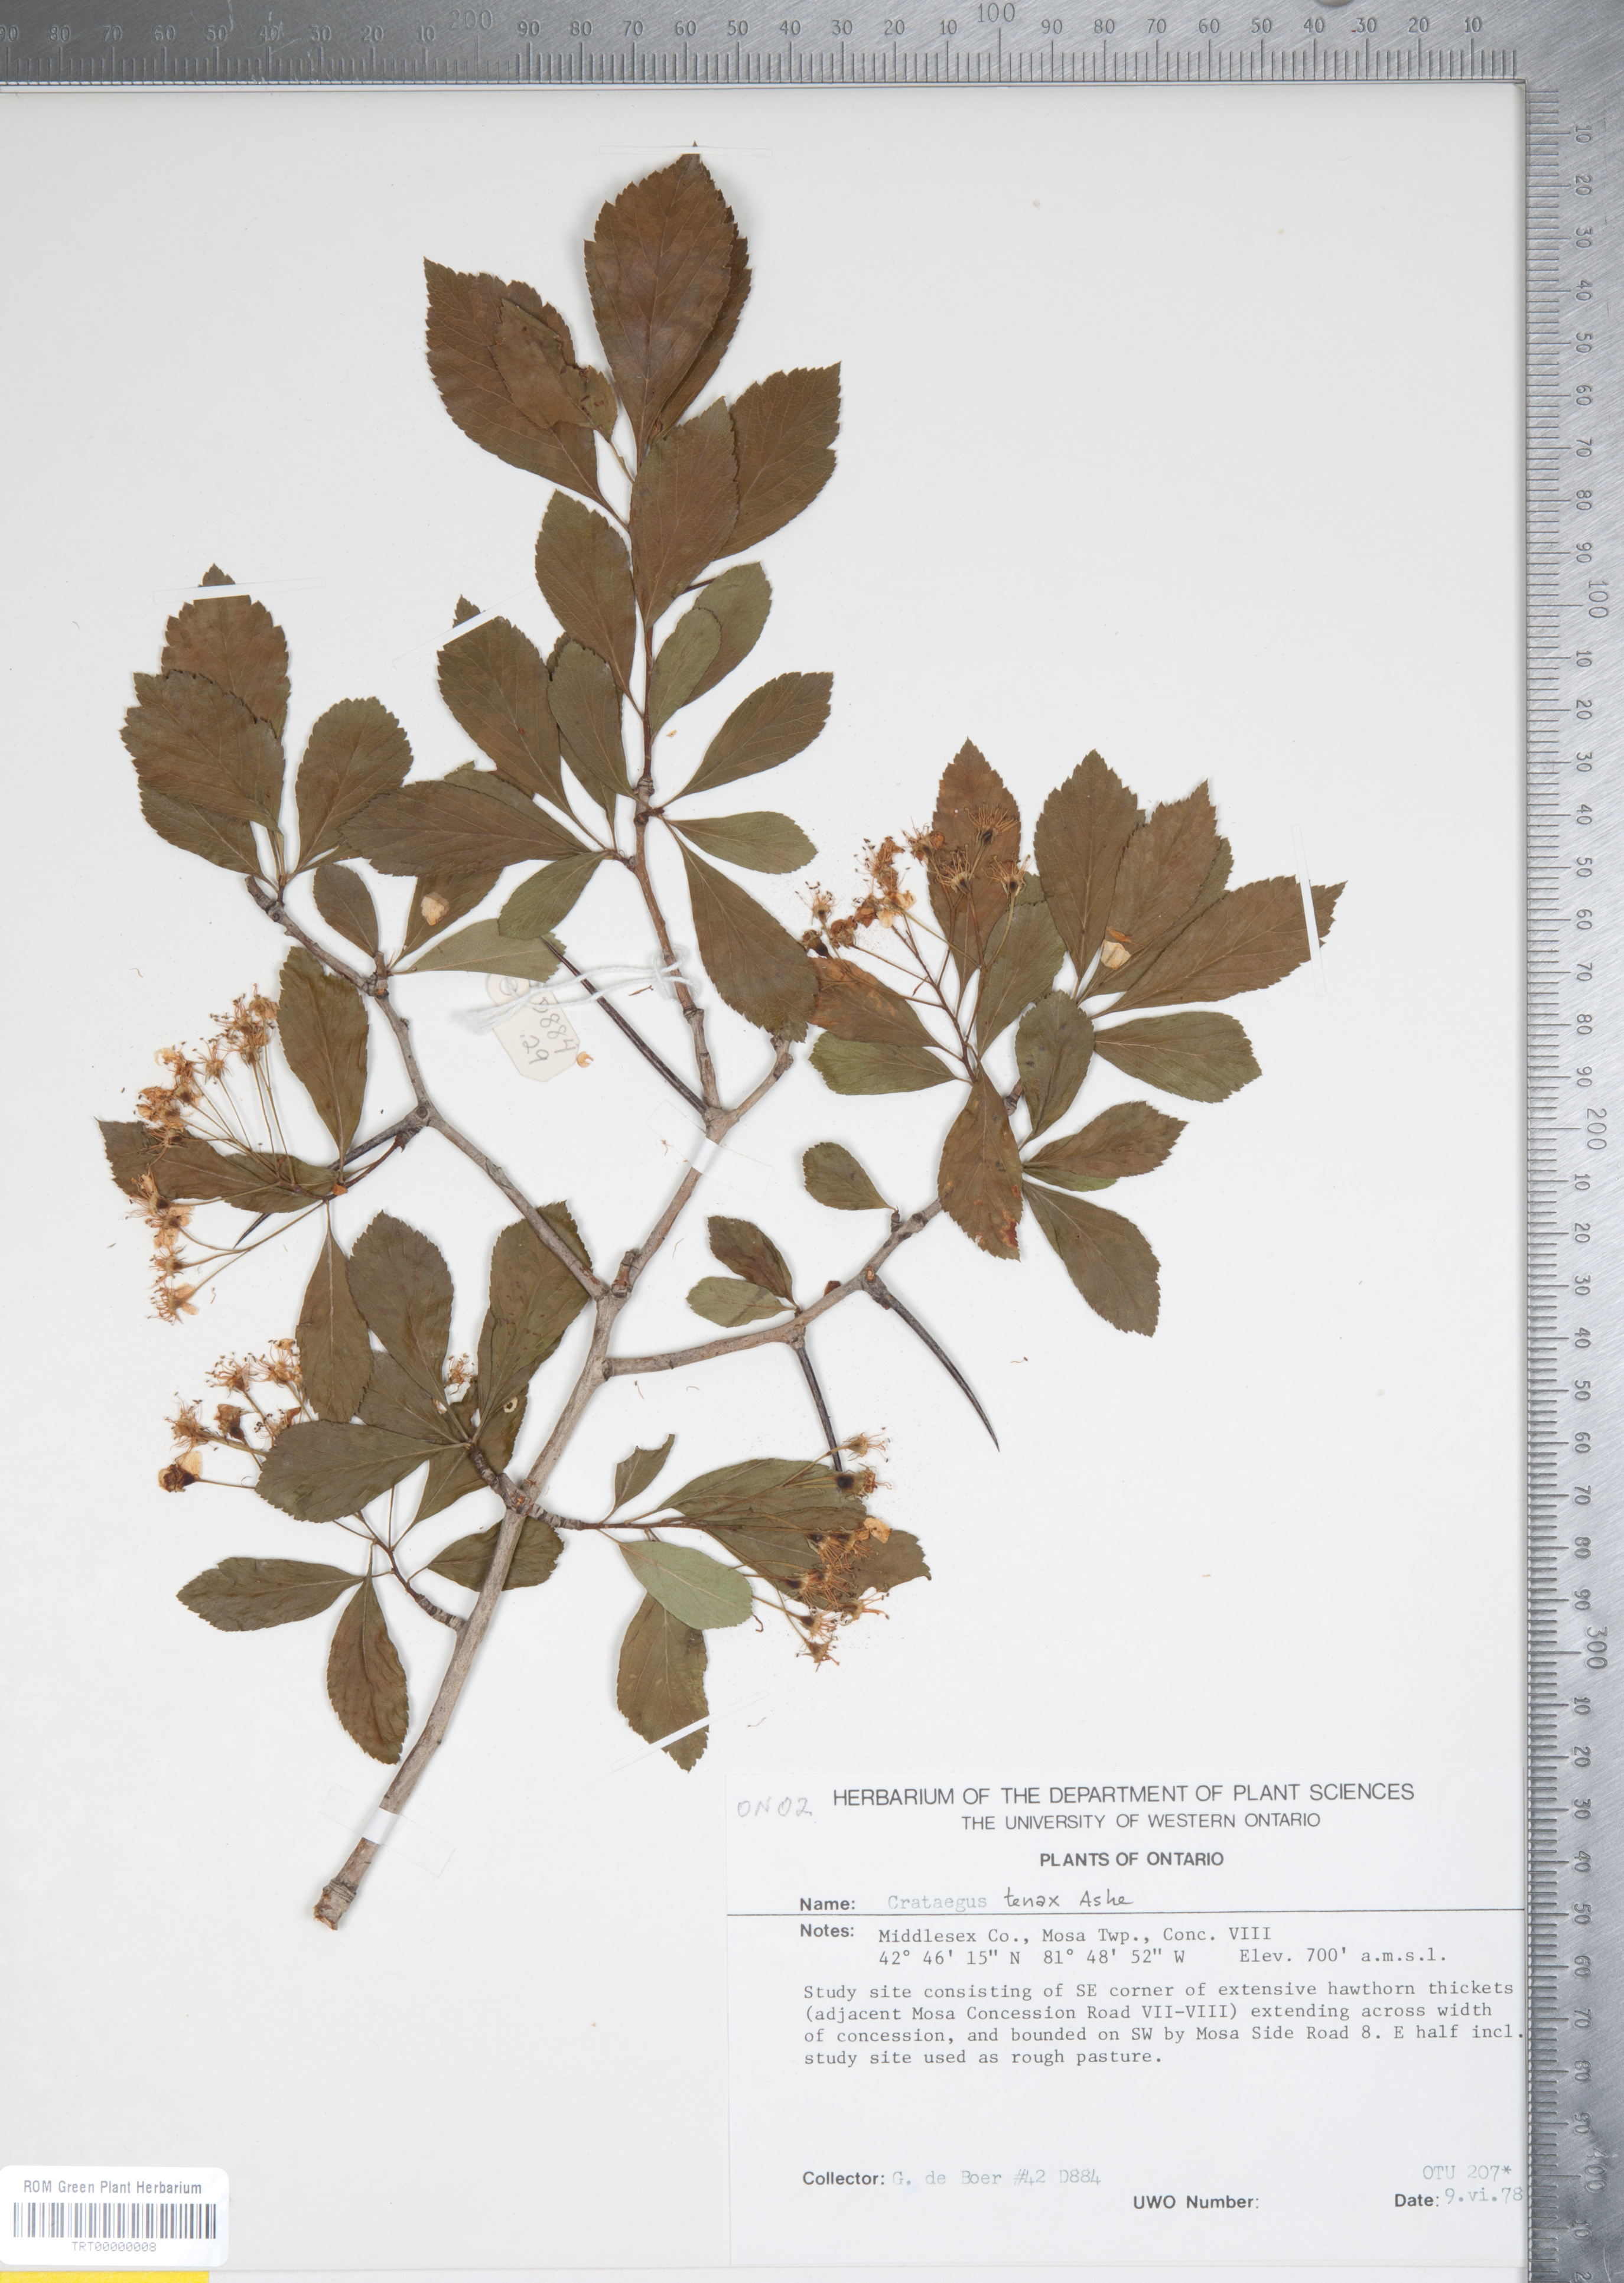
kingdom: Plantae
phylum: Tracheophyta
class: Magnoliopsida
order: Rosales
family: Rosaceae
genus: Crataegus
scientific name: Crataegus crus-galli
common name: Cockspurthorn
